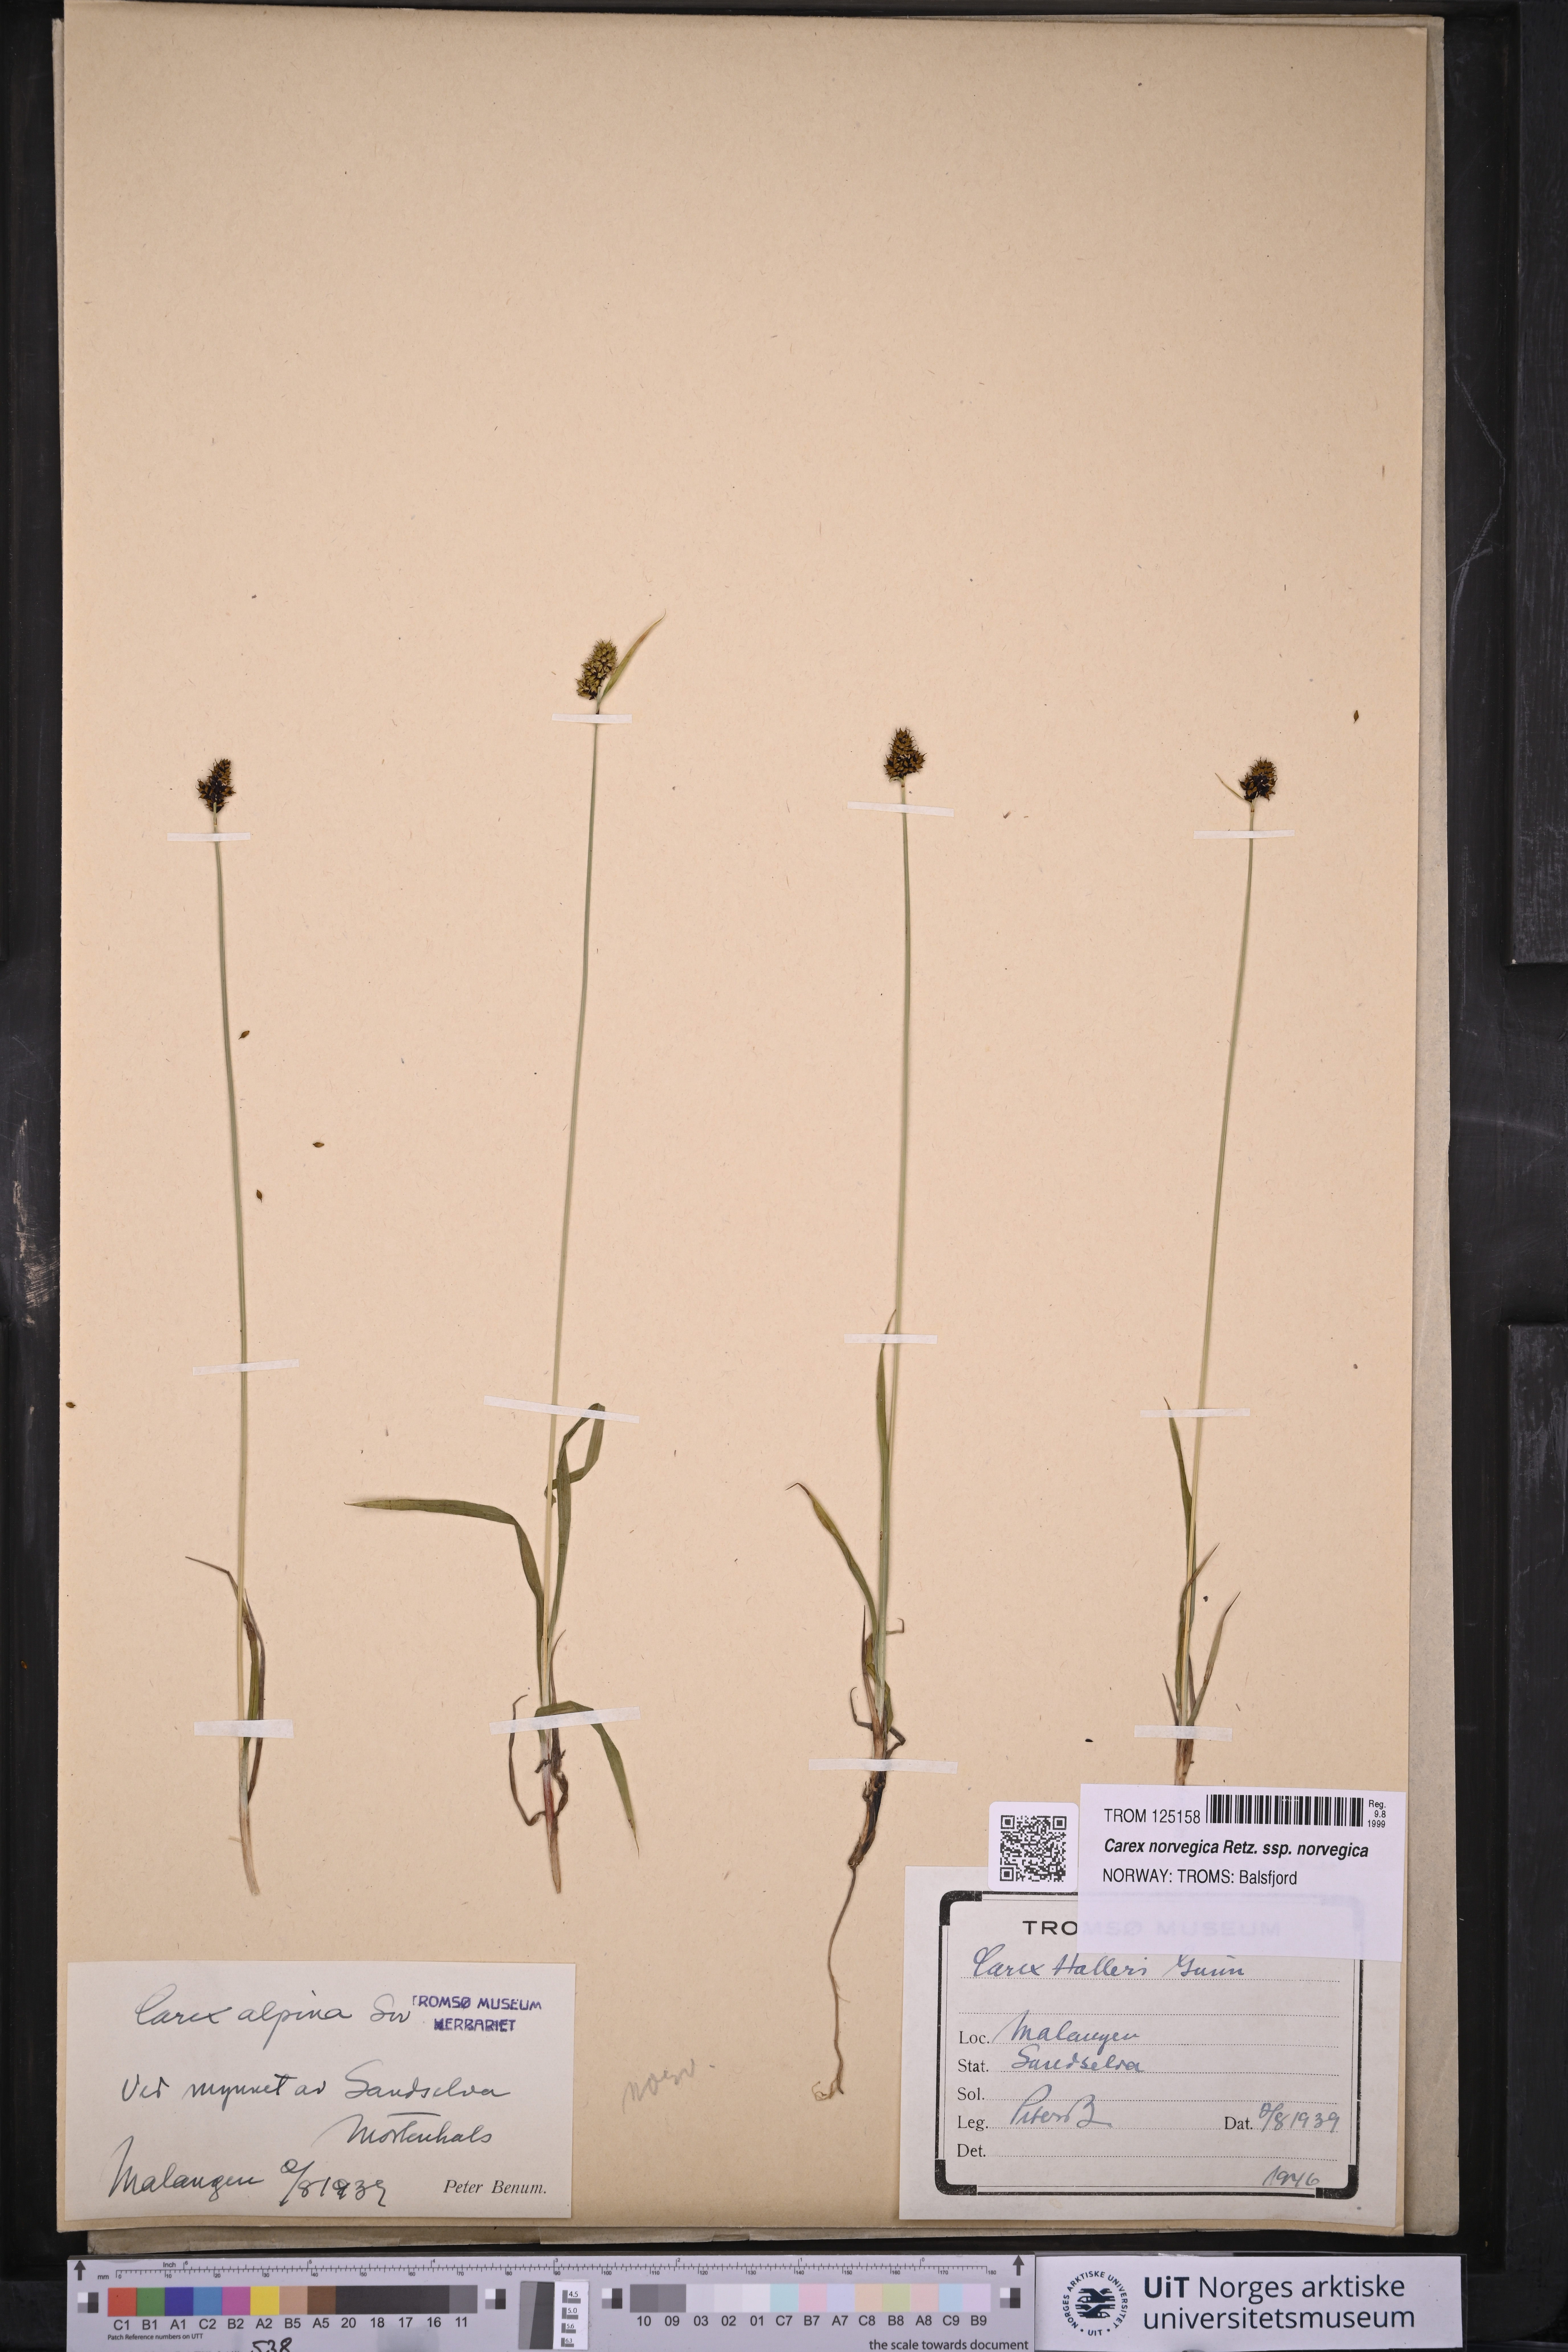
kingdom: Plantae
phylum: Tracheophyta
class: Liliopsida
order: Poales
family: Cyperaceae
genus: Carex
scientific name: Carex norvegica
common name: Close-headed alpine-sedge
